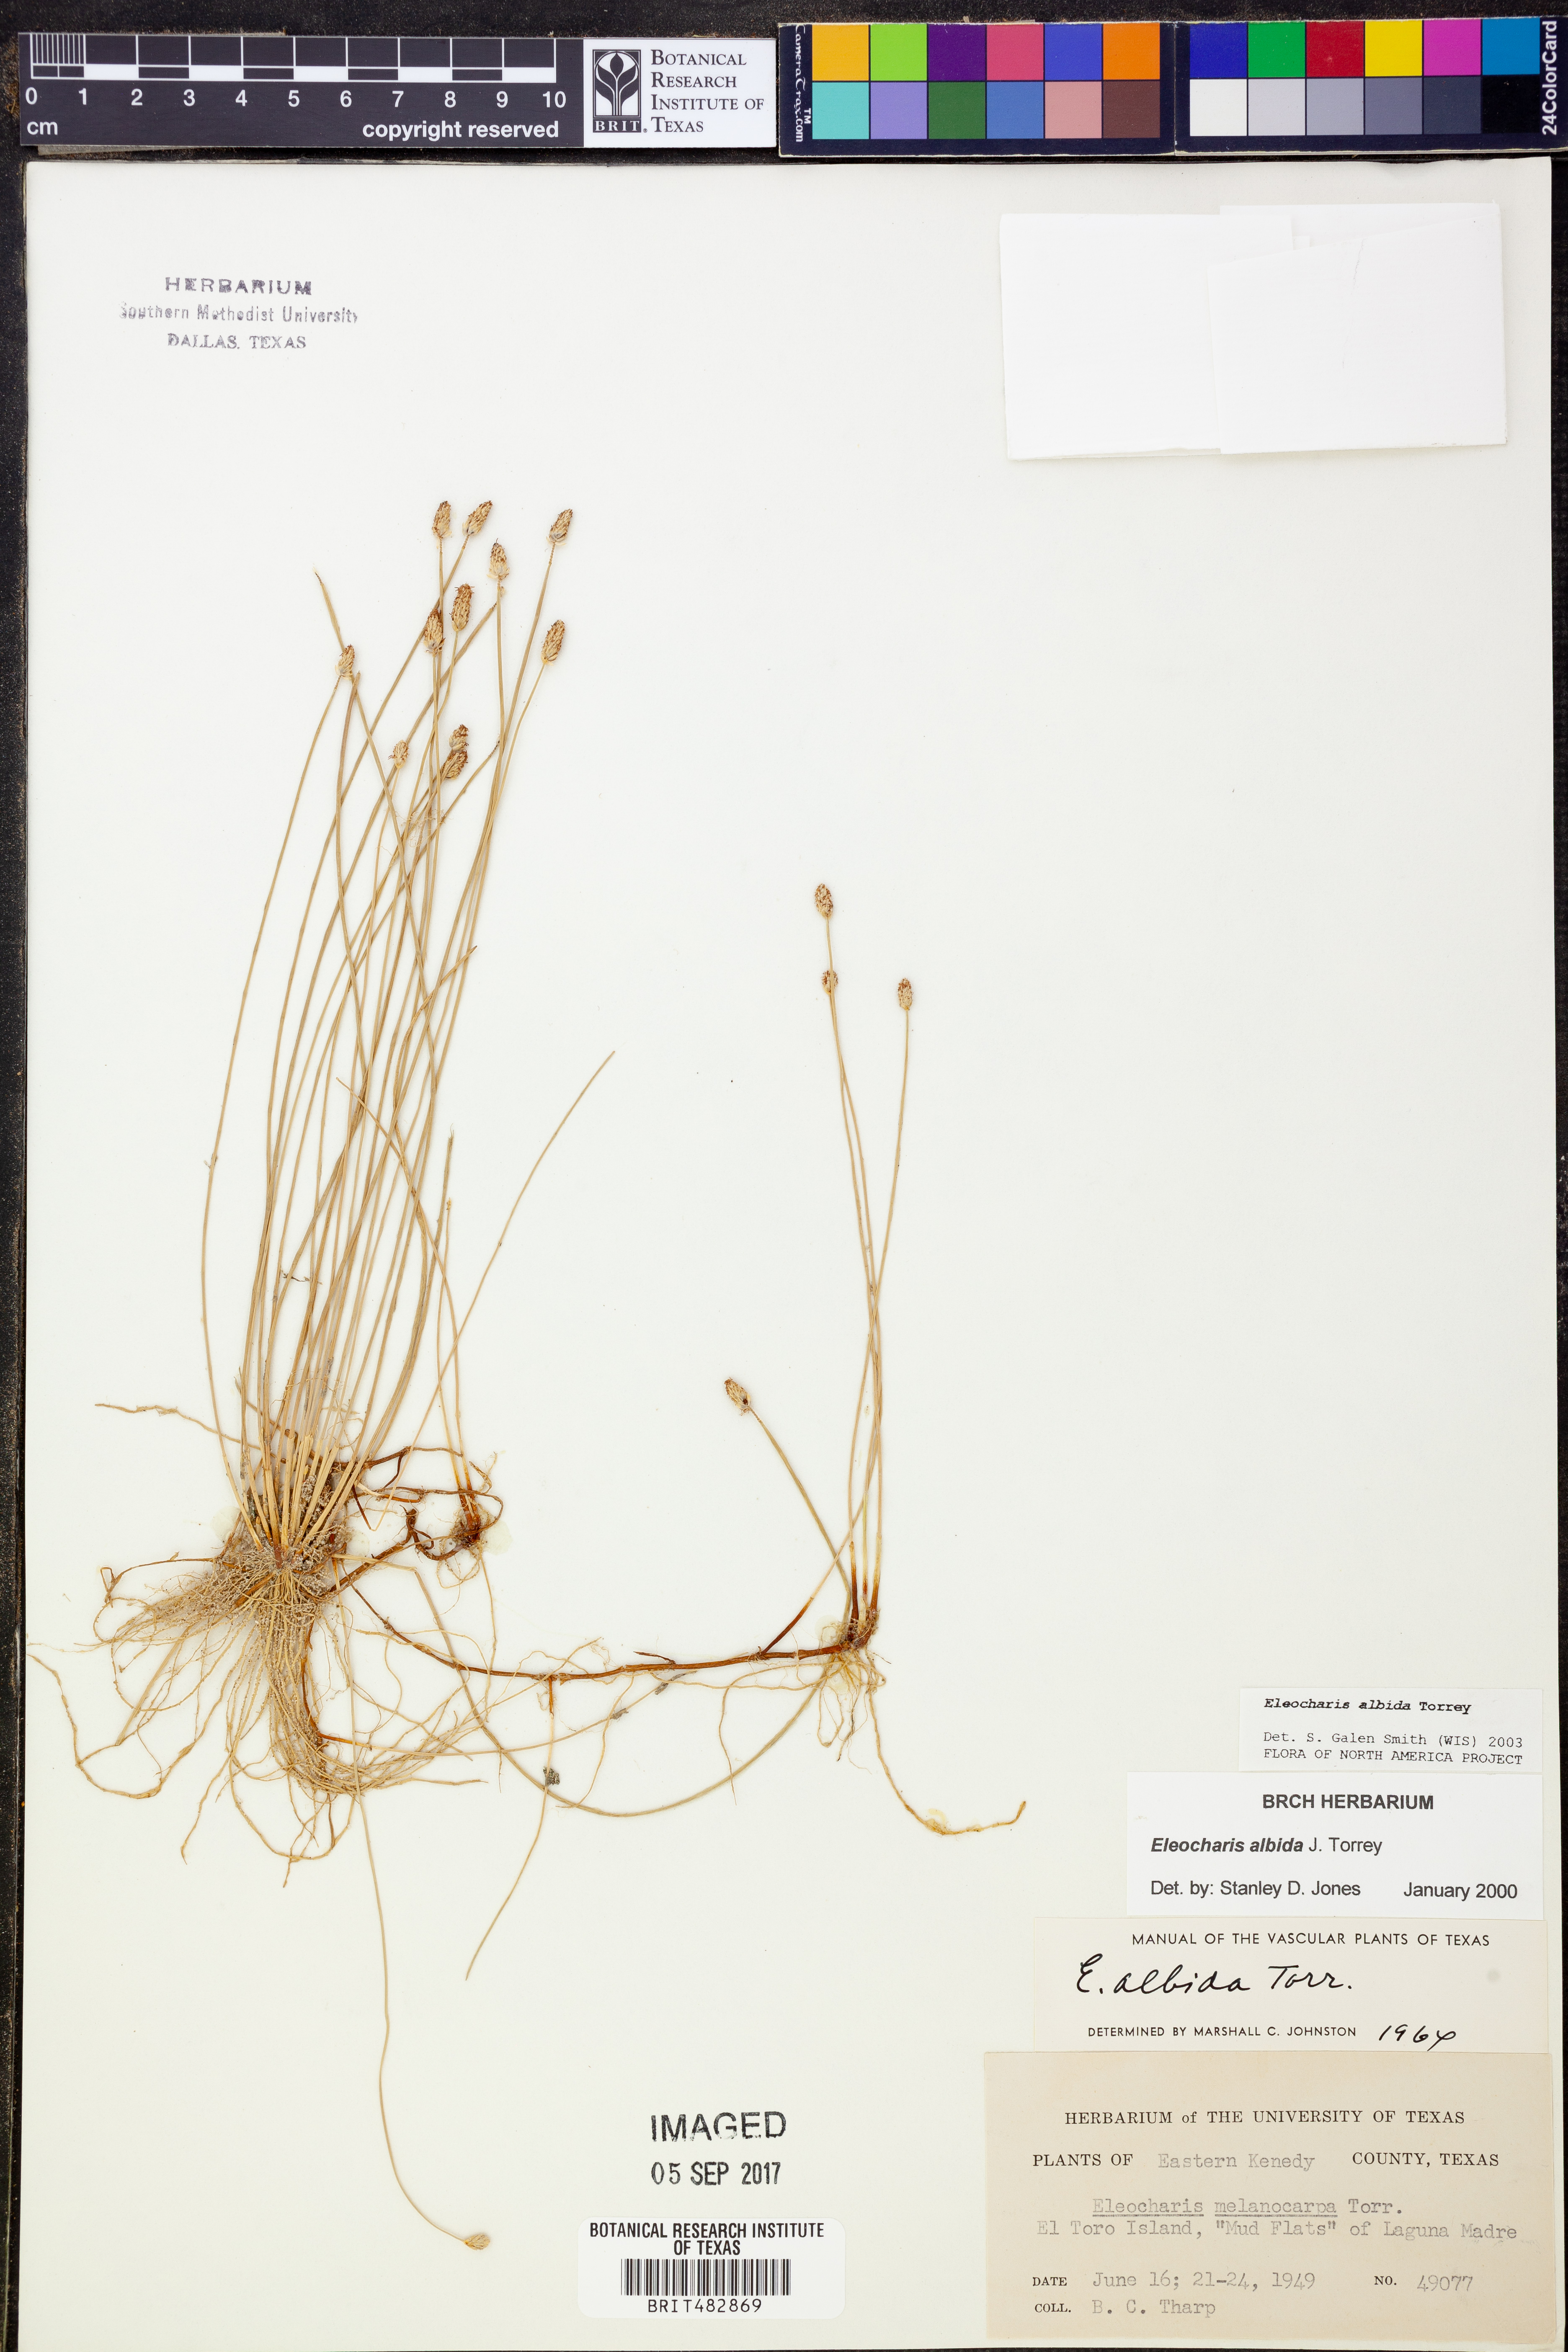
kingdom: Plantae
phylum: Tracheophyta
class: Liliopsida
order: Poales
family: Cyperaceae
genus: Eleocharis
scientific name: Eleocharis melanocarpa
